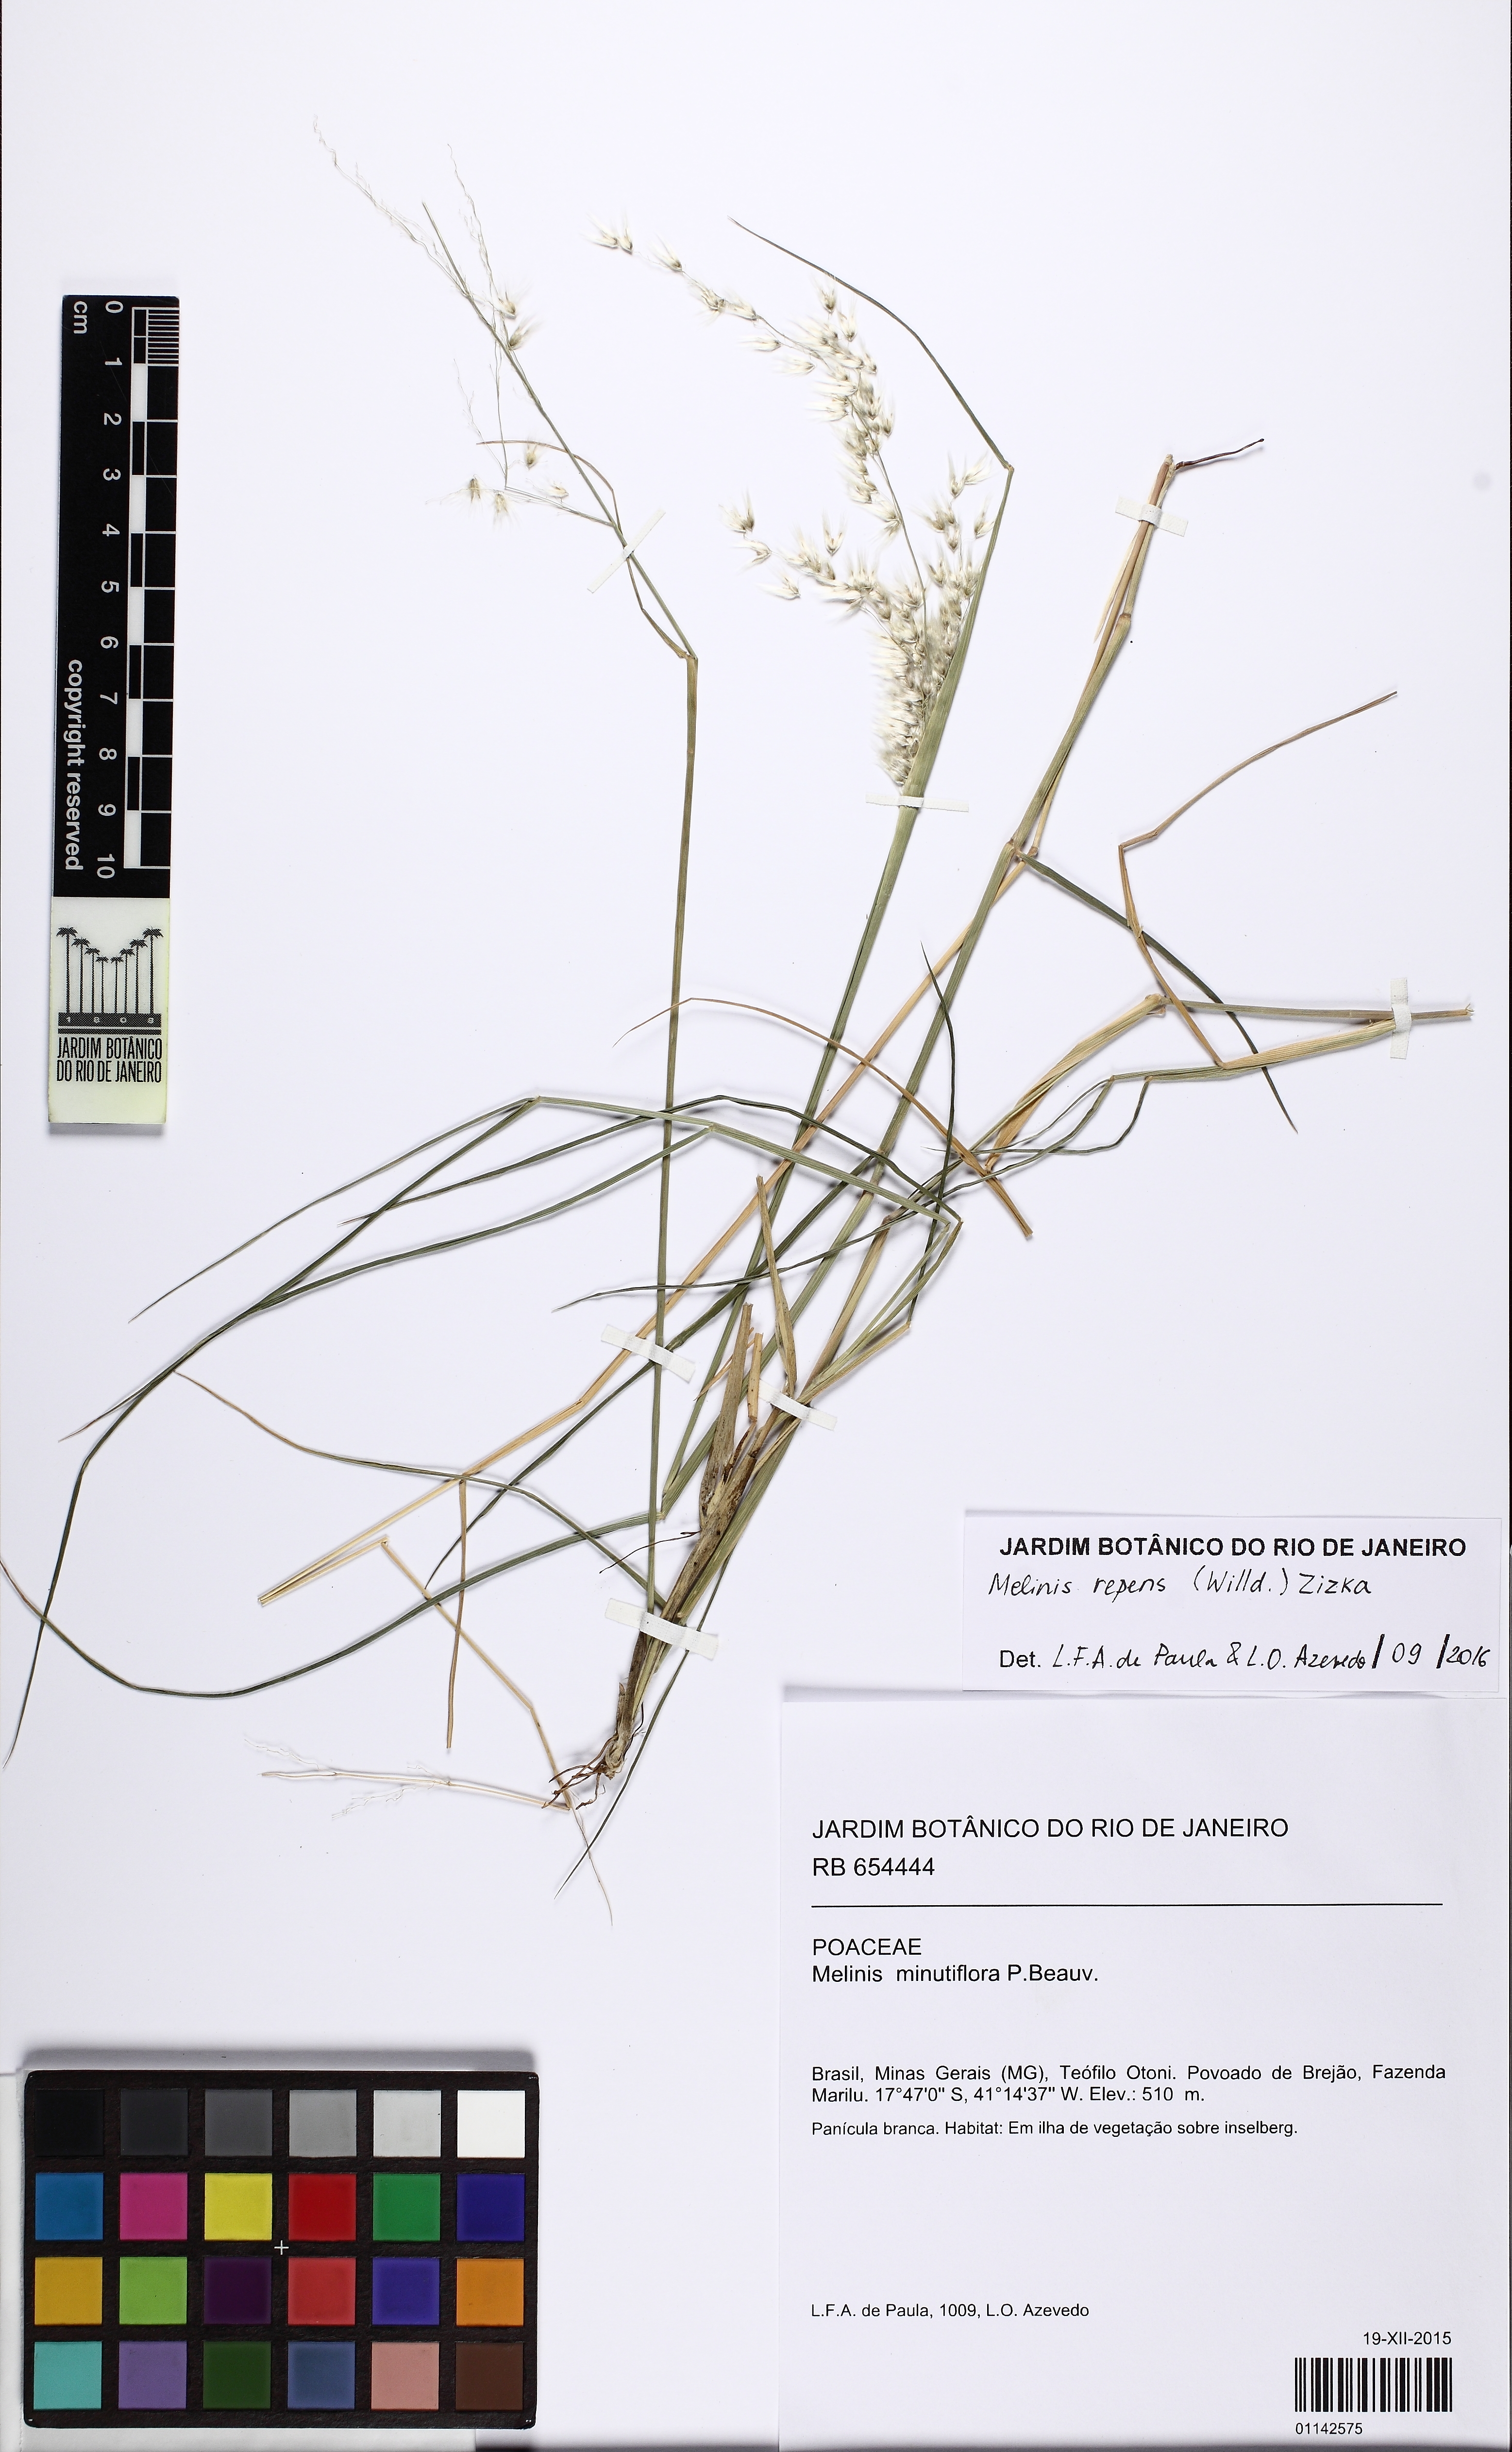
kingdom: Plantae
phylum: Tracheophyta
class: Liliopsida
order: Poales
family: Poaceae
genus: Melinis
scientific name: Melinis repens
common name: Rose natal grass
